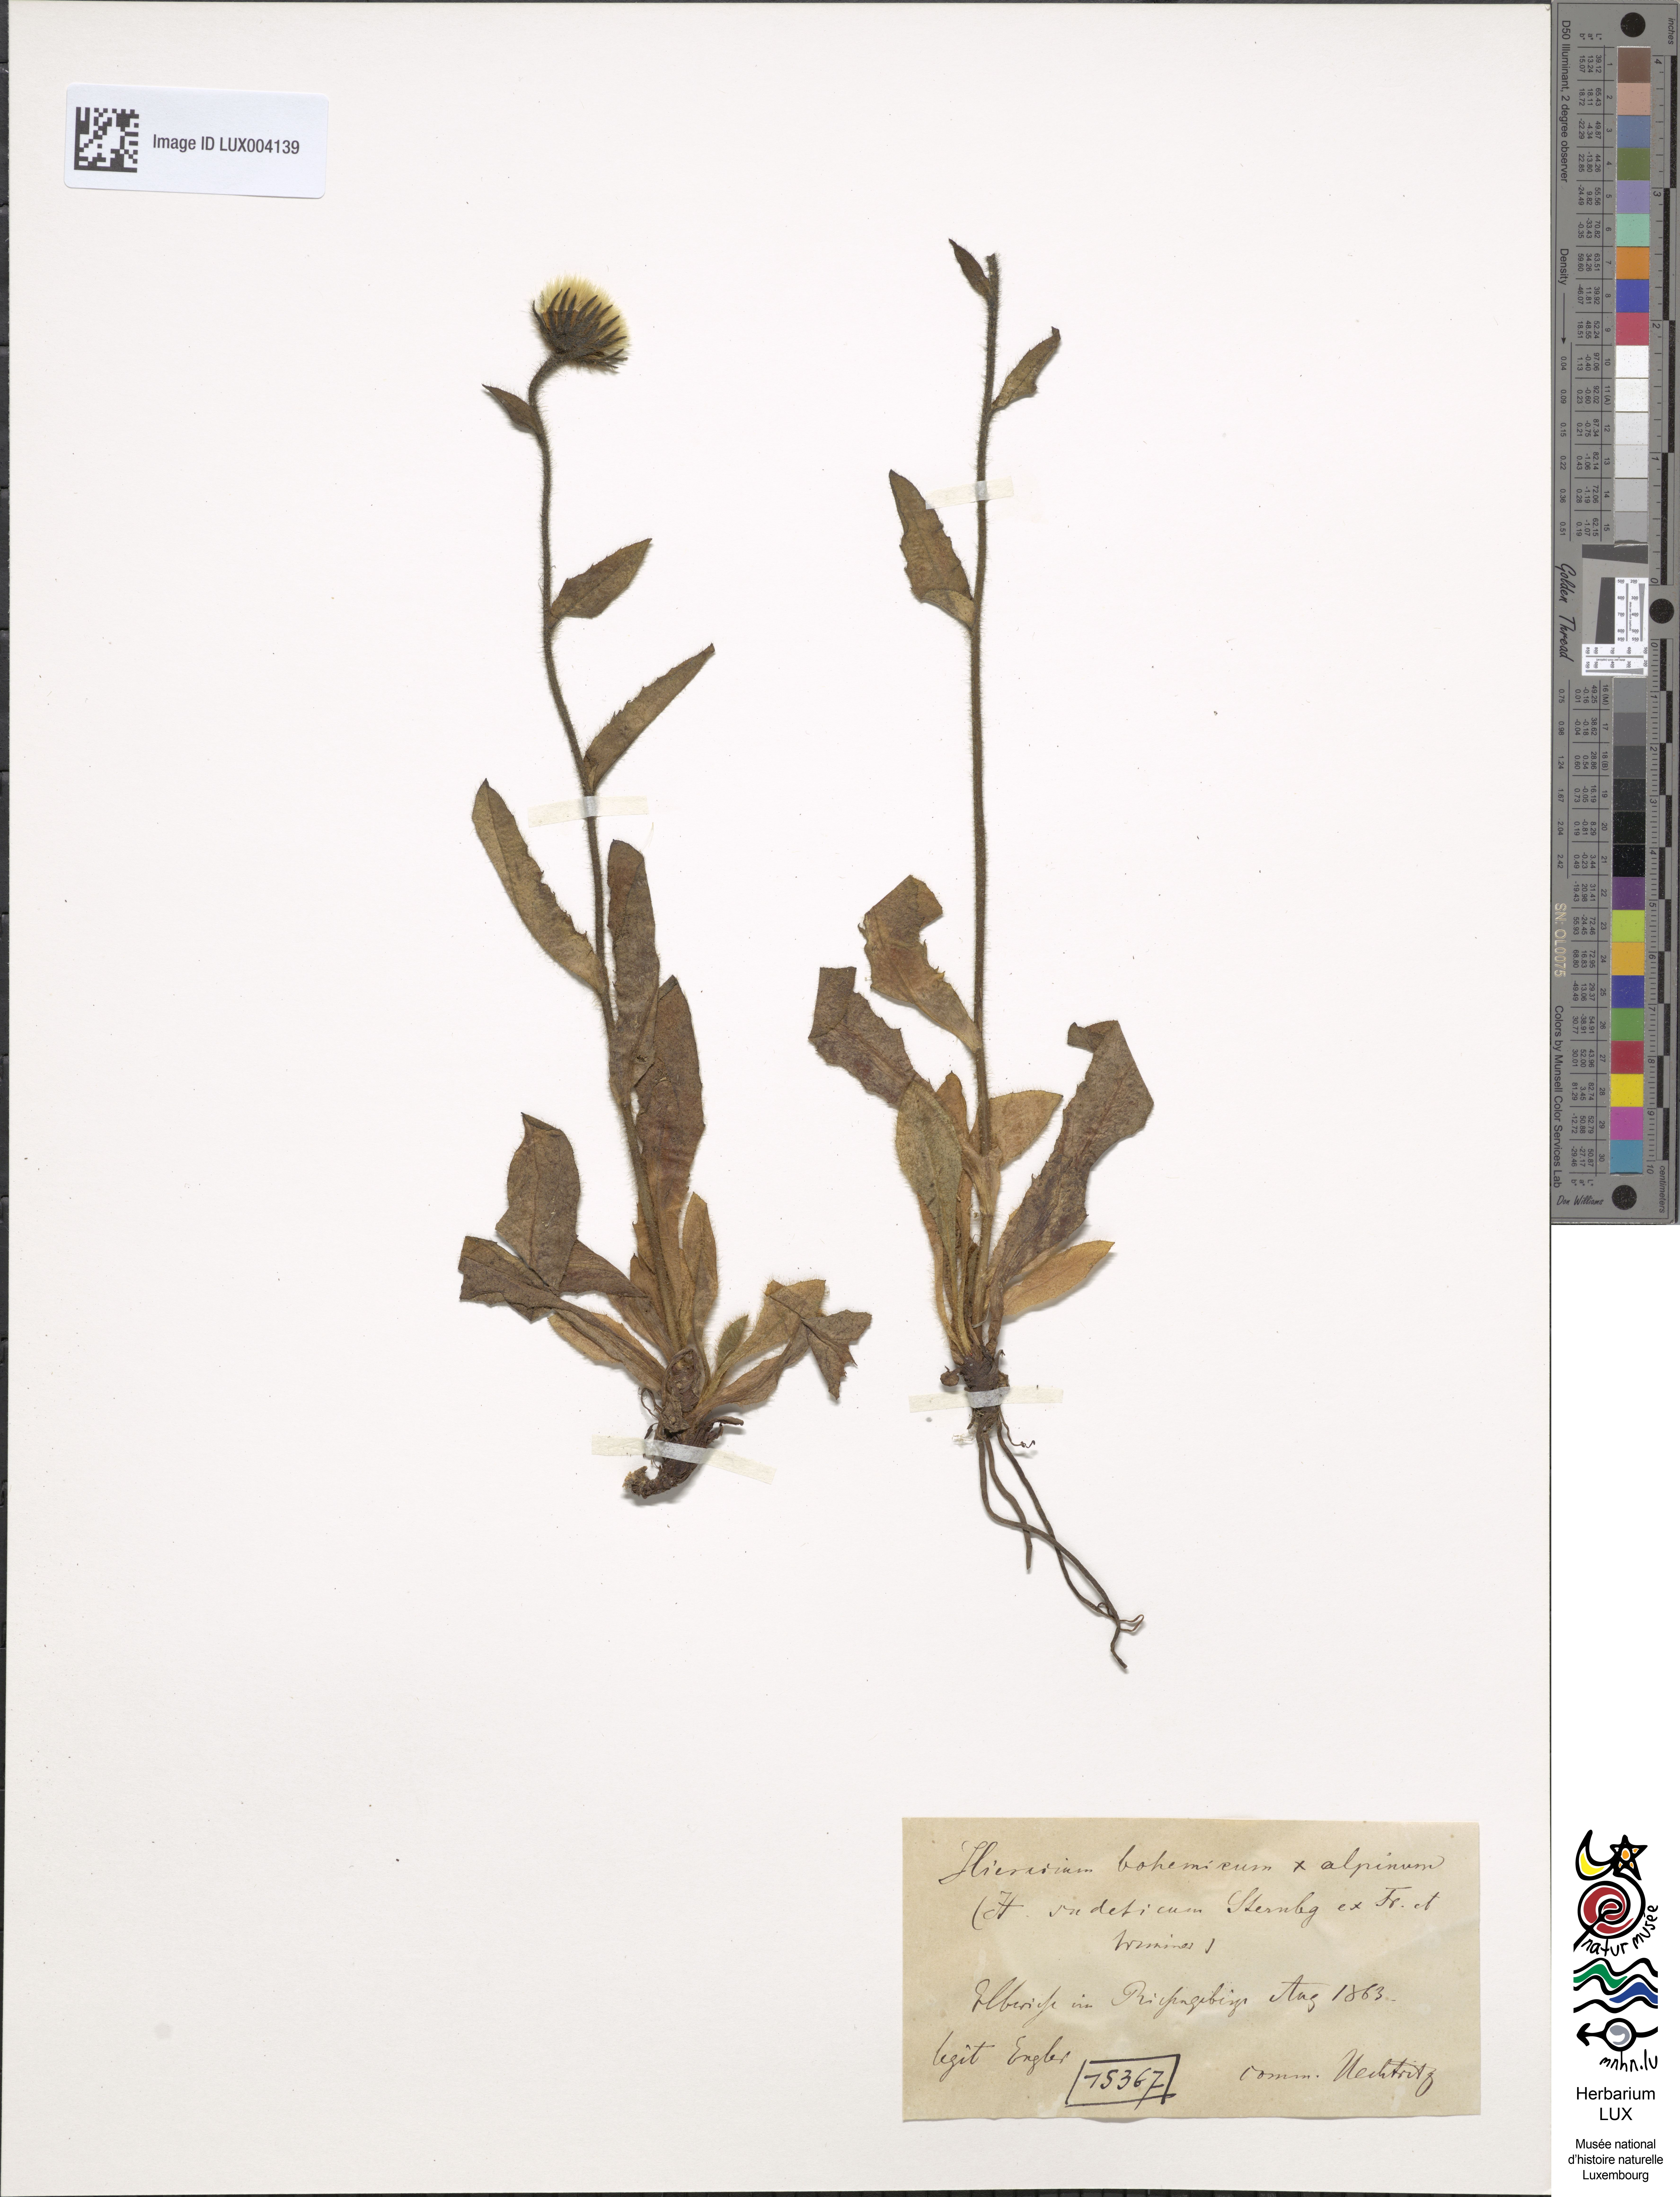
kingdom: Plantae
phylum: Tracheophyta
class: Magnoliopsida
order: Asterales
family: Asteraceae
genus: Hieracium
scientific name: Hieracium sudeticum
